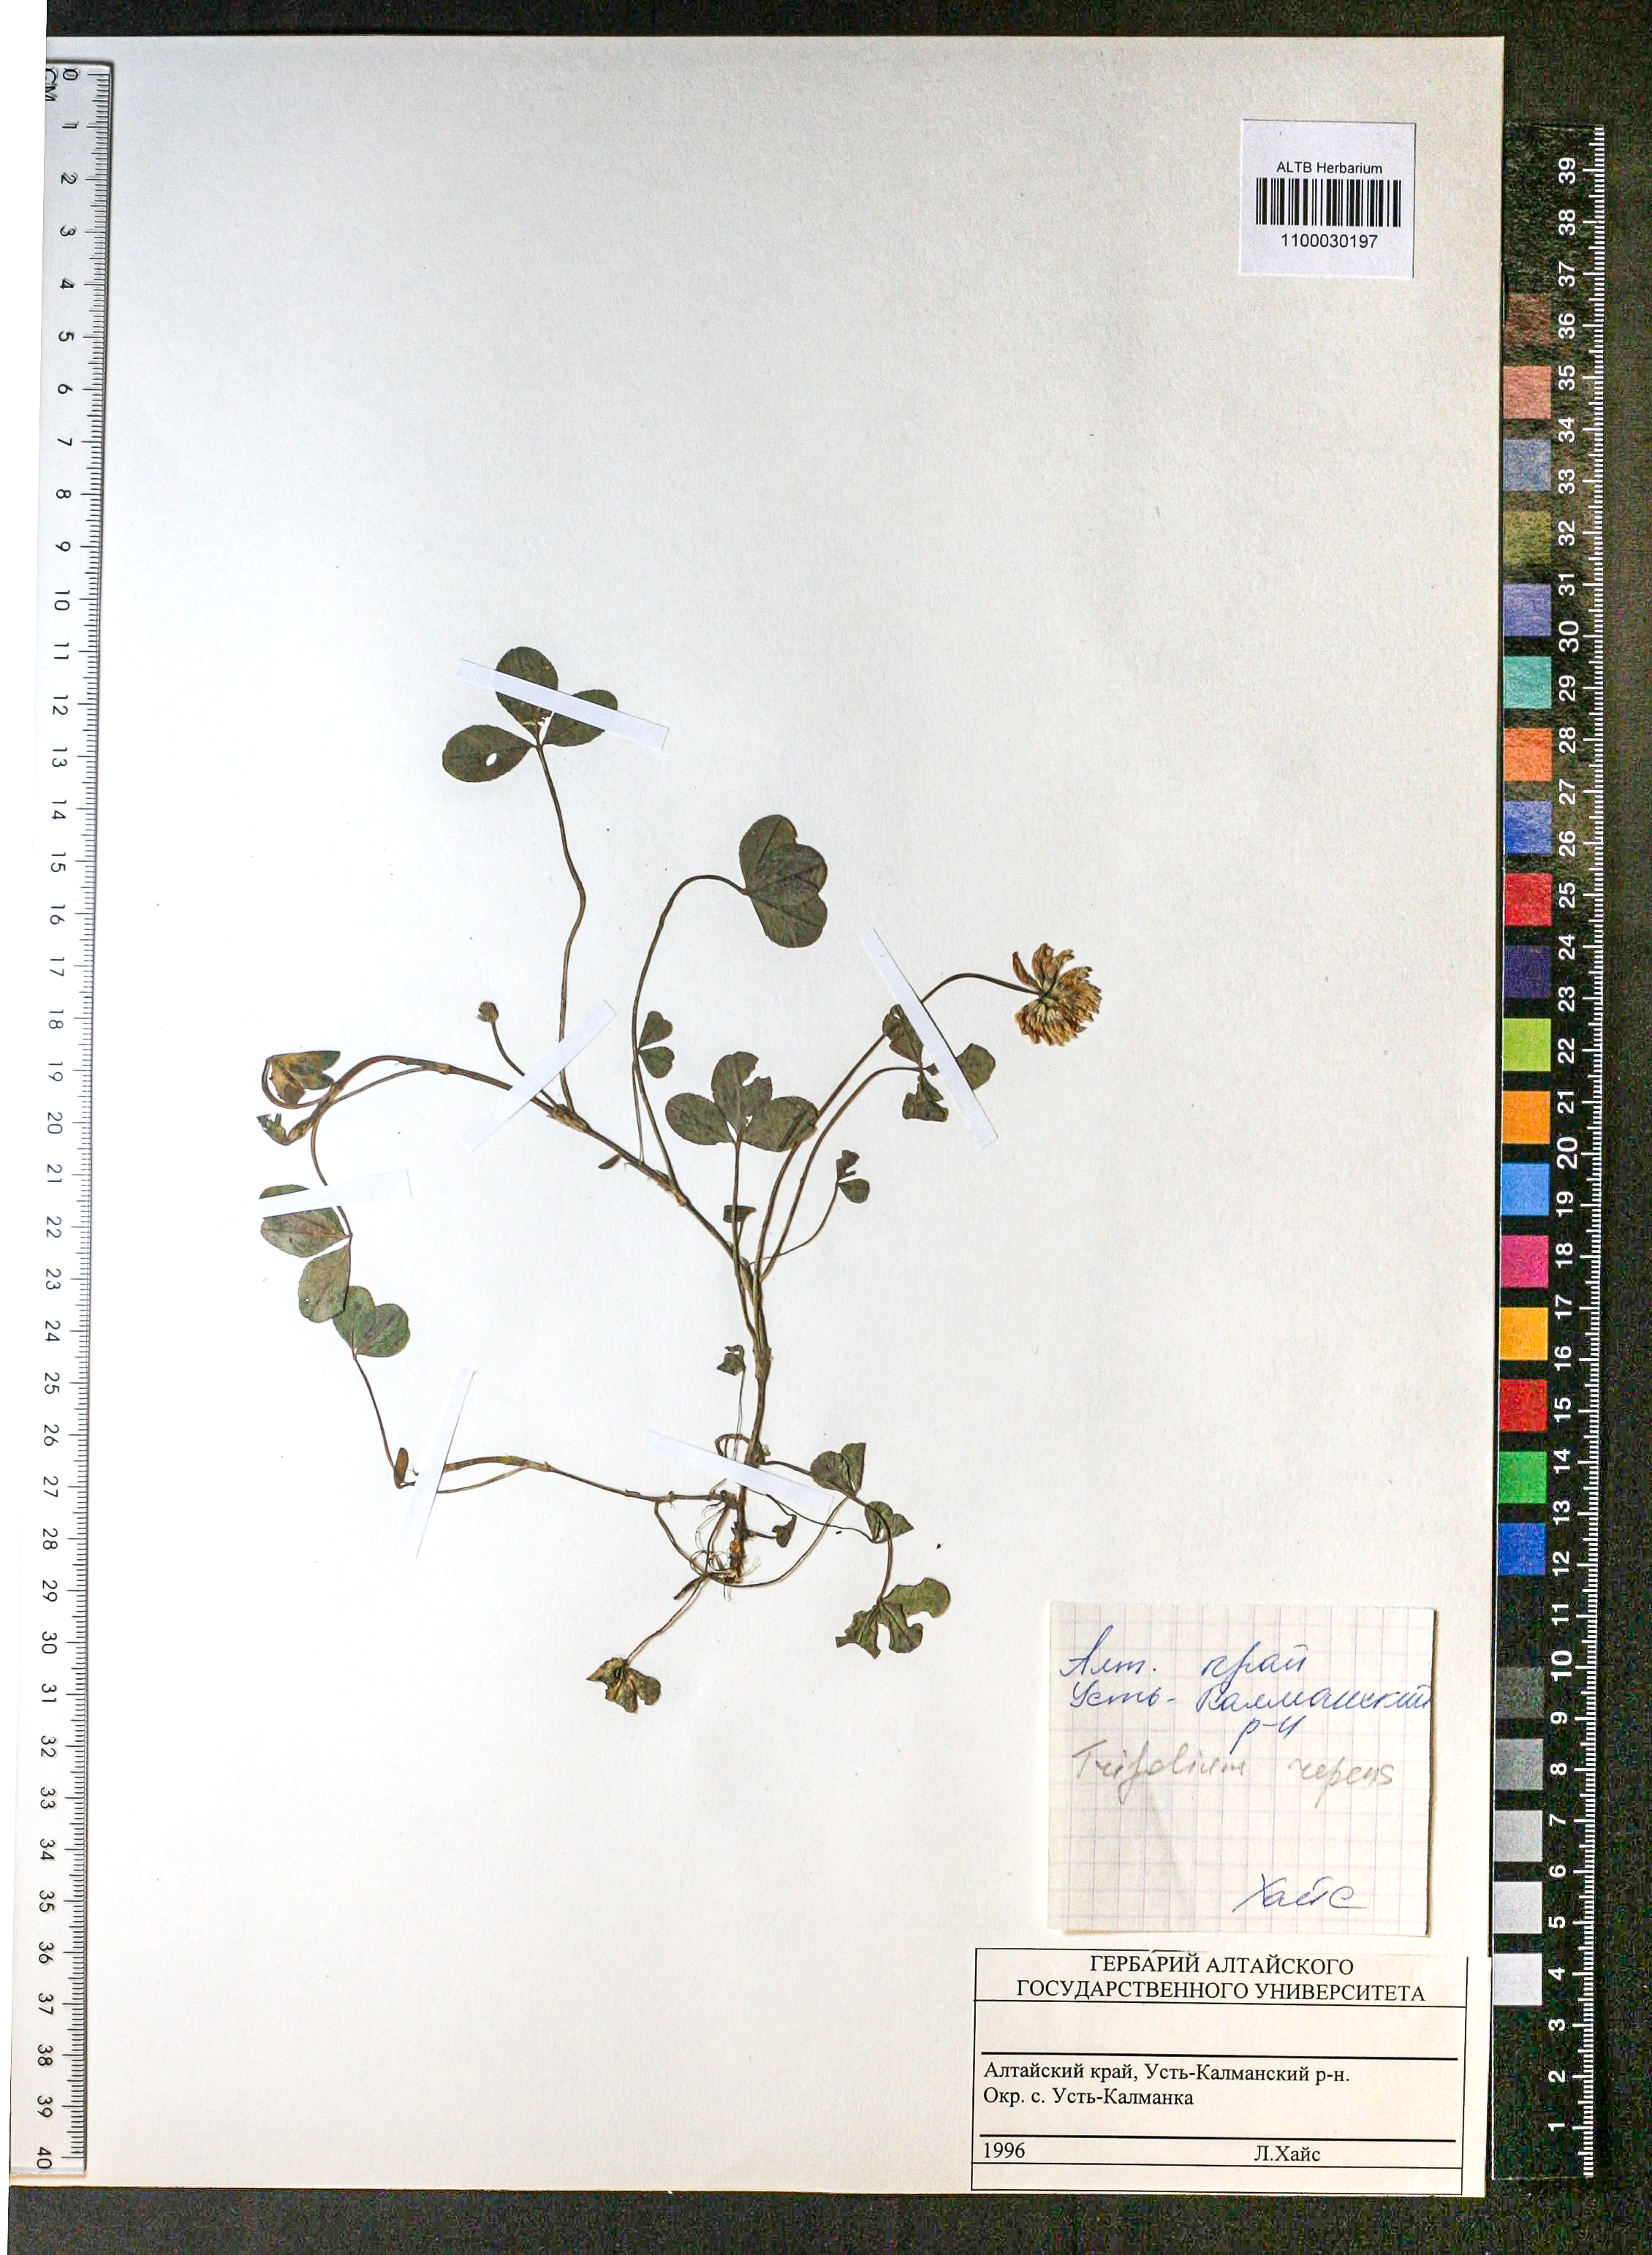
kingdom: Plantae
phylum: Tracheophyta
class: Magnoliopsida
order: Fabales
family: Fabaceae
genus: Trifolium
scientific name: Trifolium repens
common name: White clover
